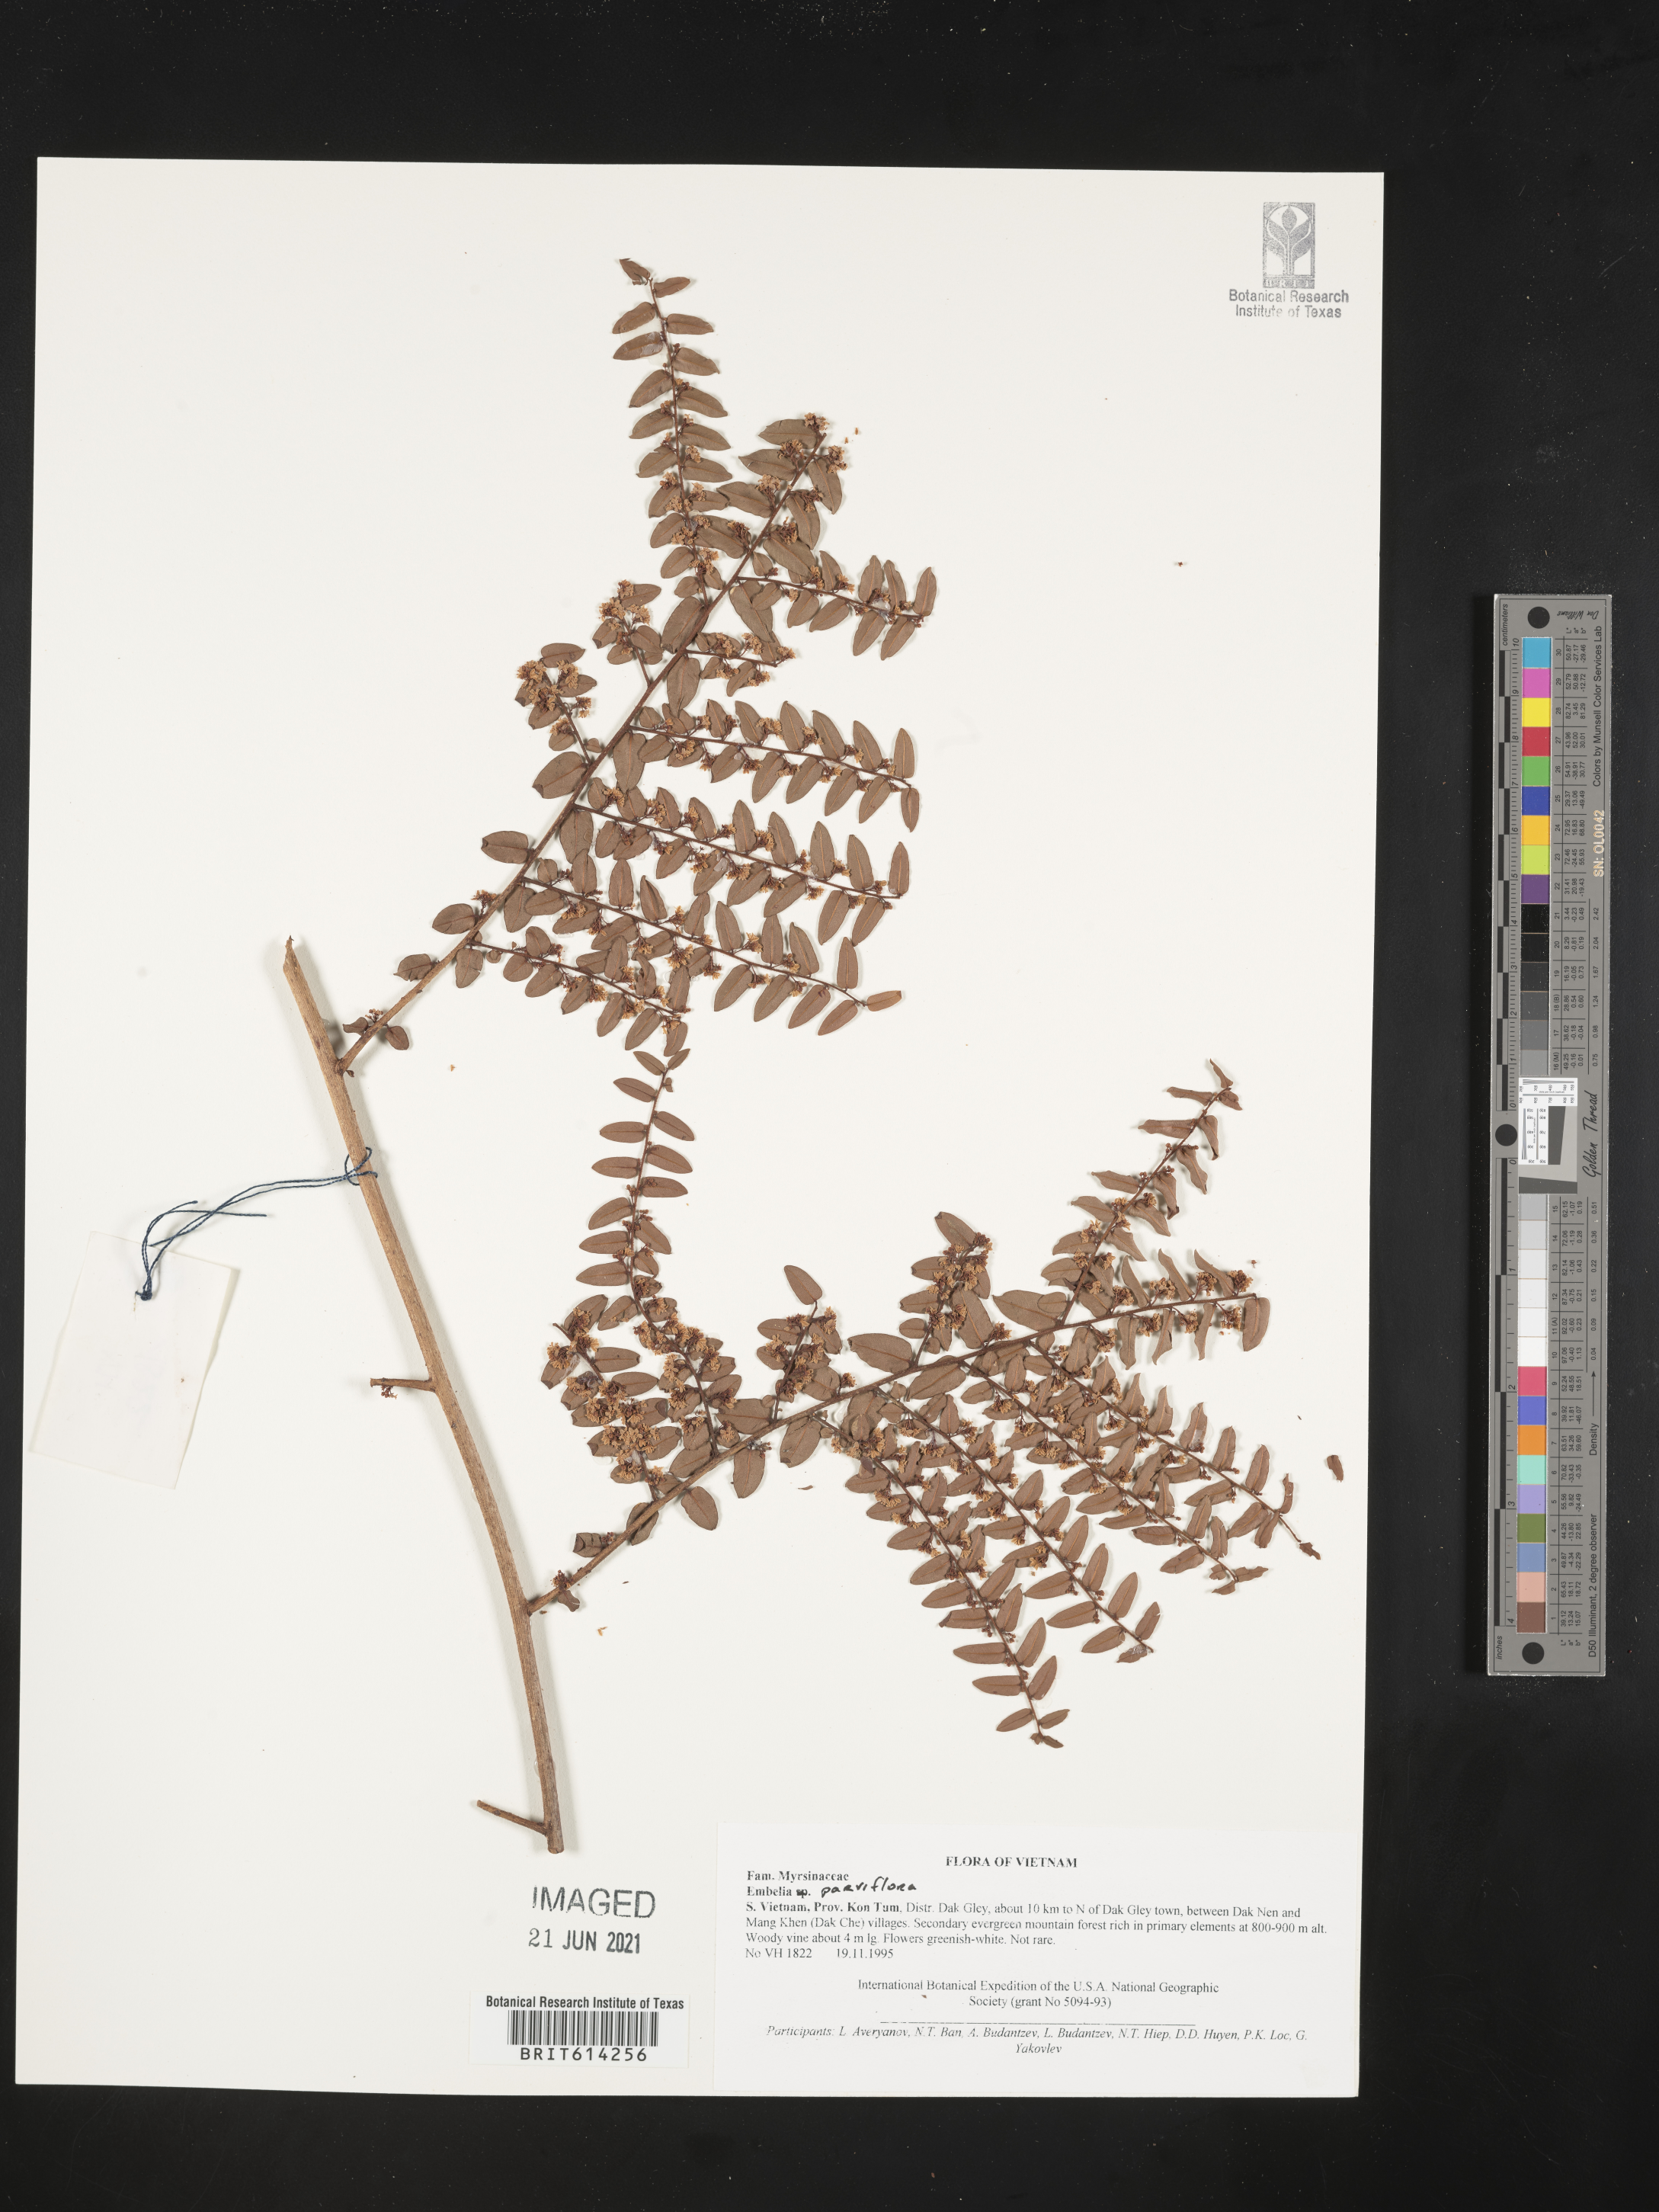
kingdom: Plantae
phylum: Tracheophyta
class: Magnoliopsida
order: Ericales
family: Primulaceae
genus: Embelia
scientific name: Embelia parviflora
